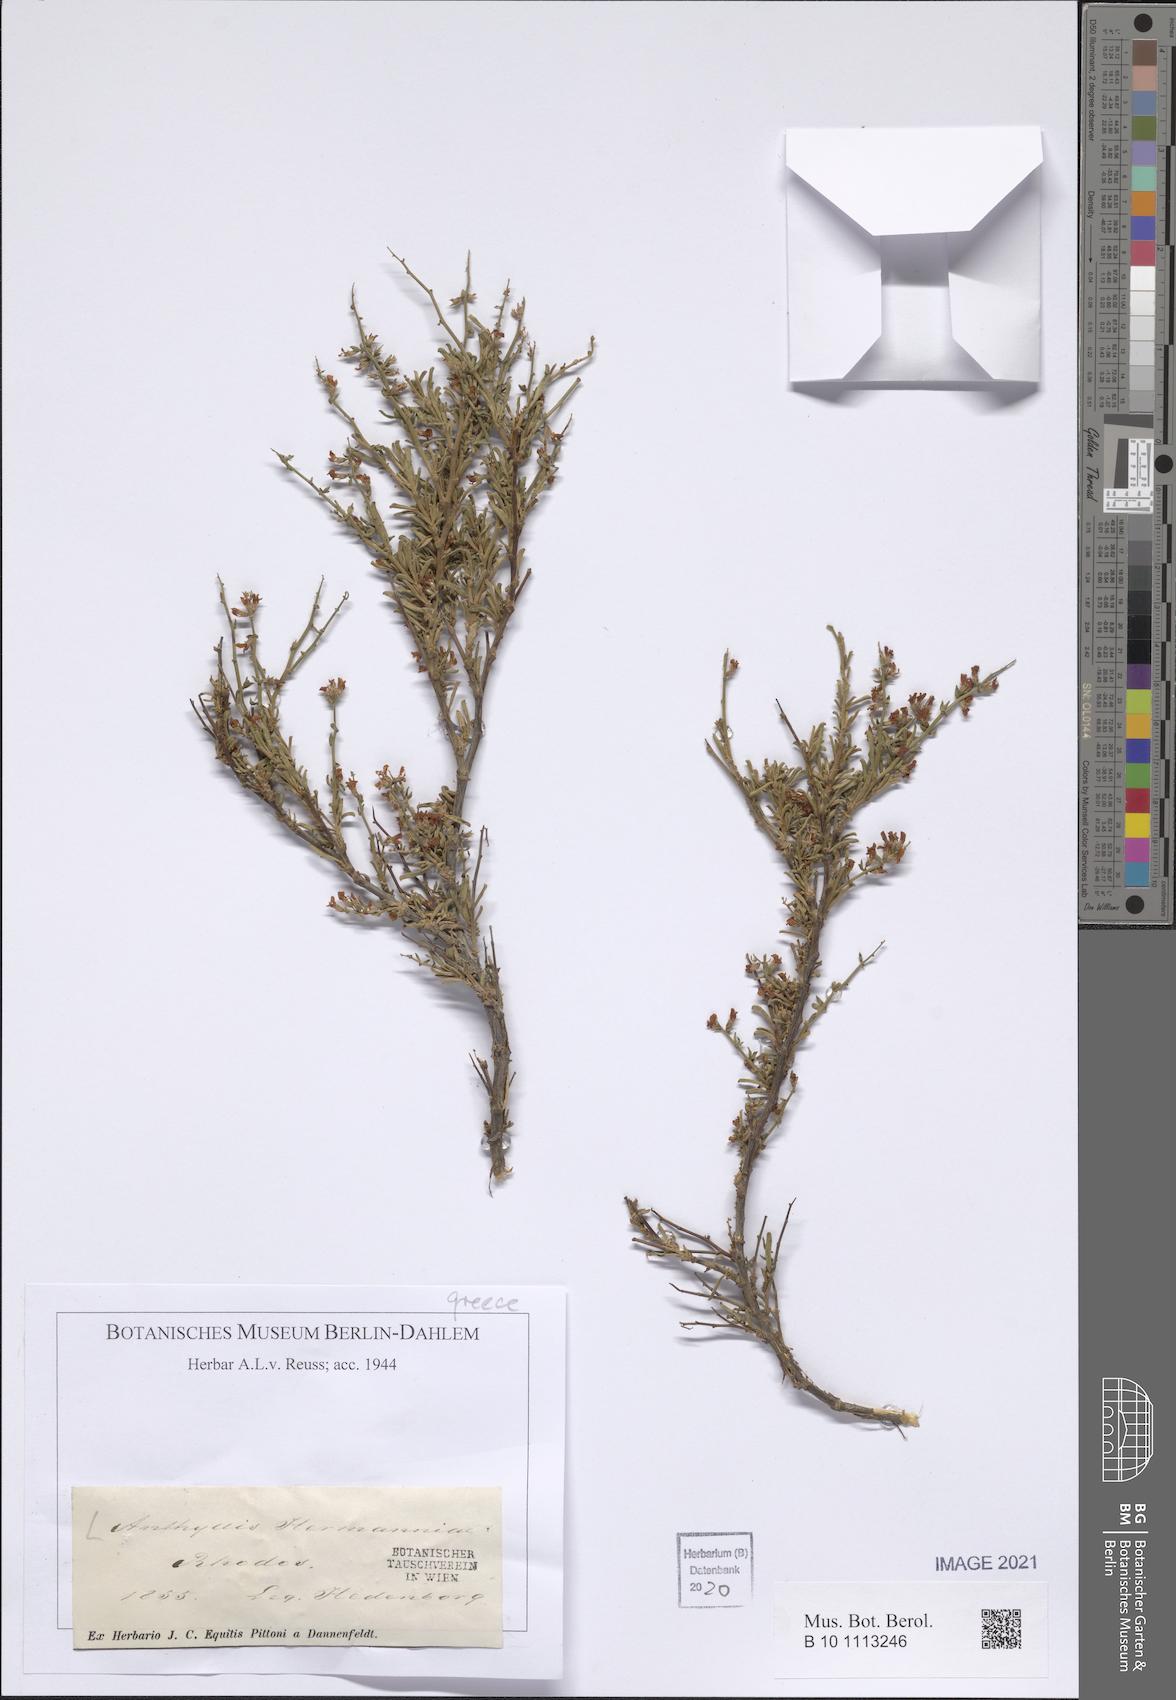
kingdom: Plantae
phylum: Tracheophyta
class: Magnoliopsida
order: Fabales
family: Fabaceae
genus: Anthyllis
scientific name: Anthyllis hermanniae
